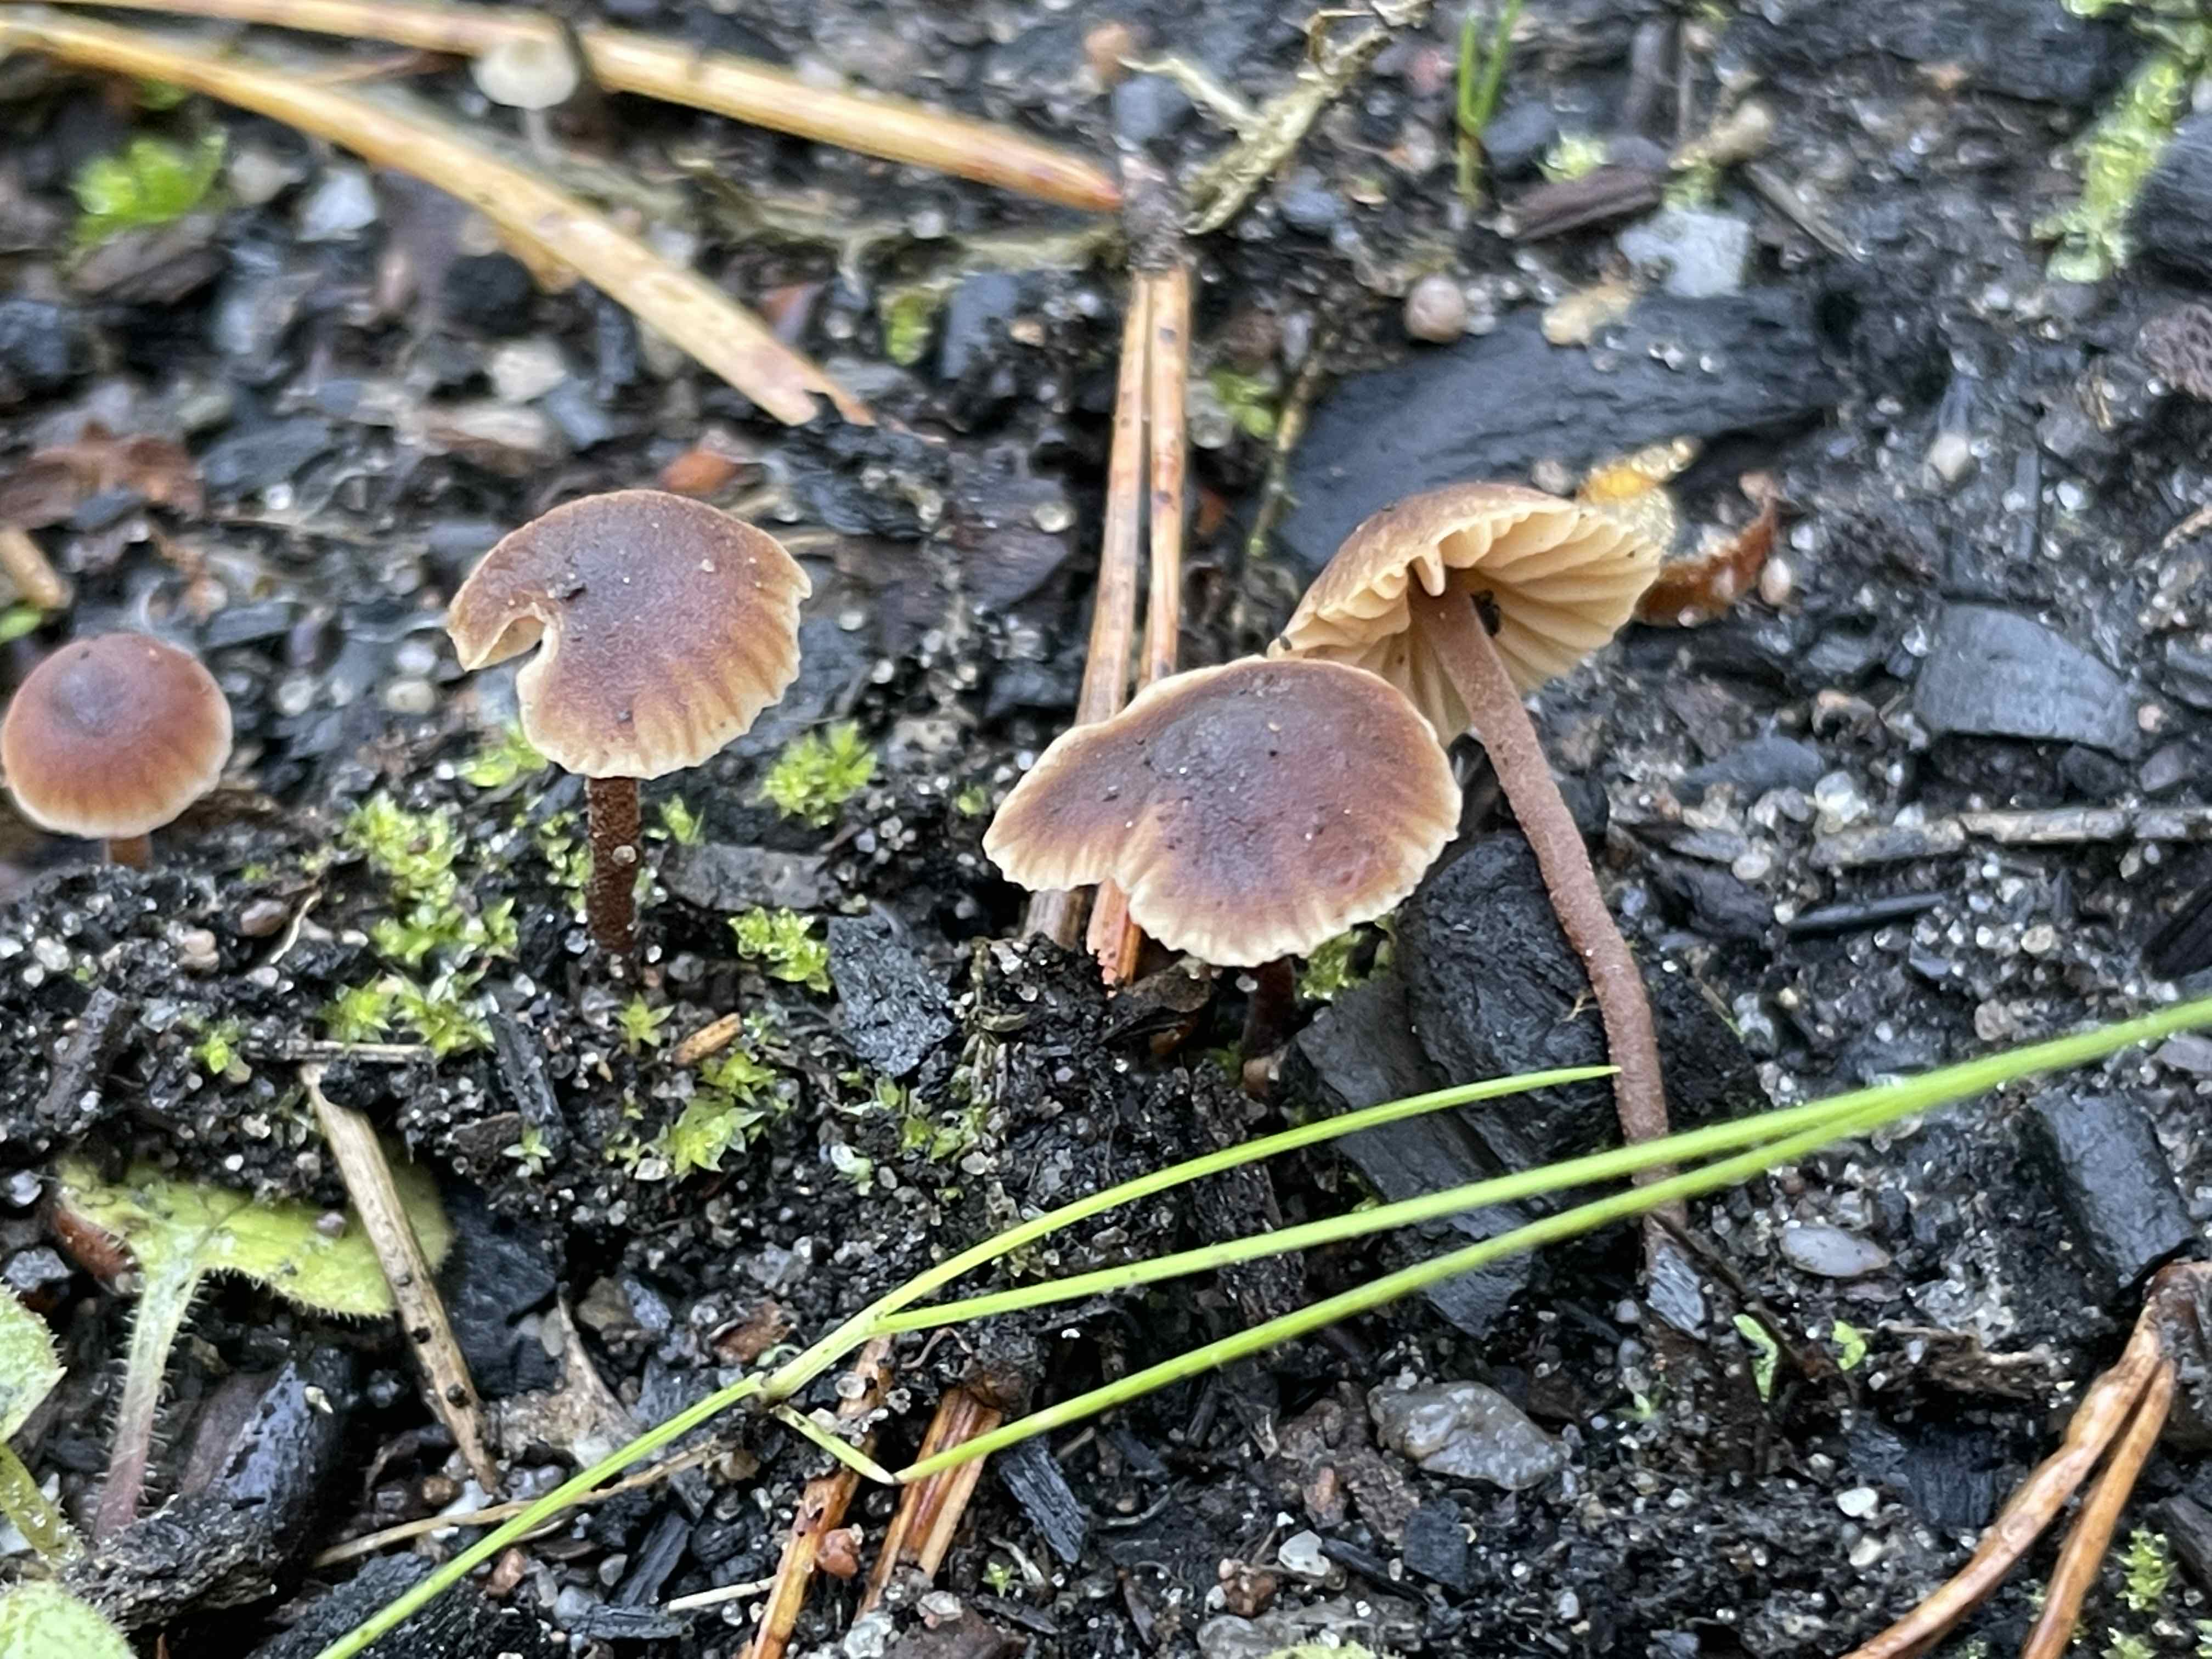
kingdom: Fungi
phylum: Basidiomycota
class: Agaricomycetes
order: Agaricales
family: Macrocystidiaceae
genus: Macrocystidia
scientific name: Macrocystidia
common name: agurkehat
